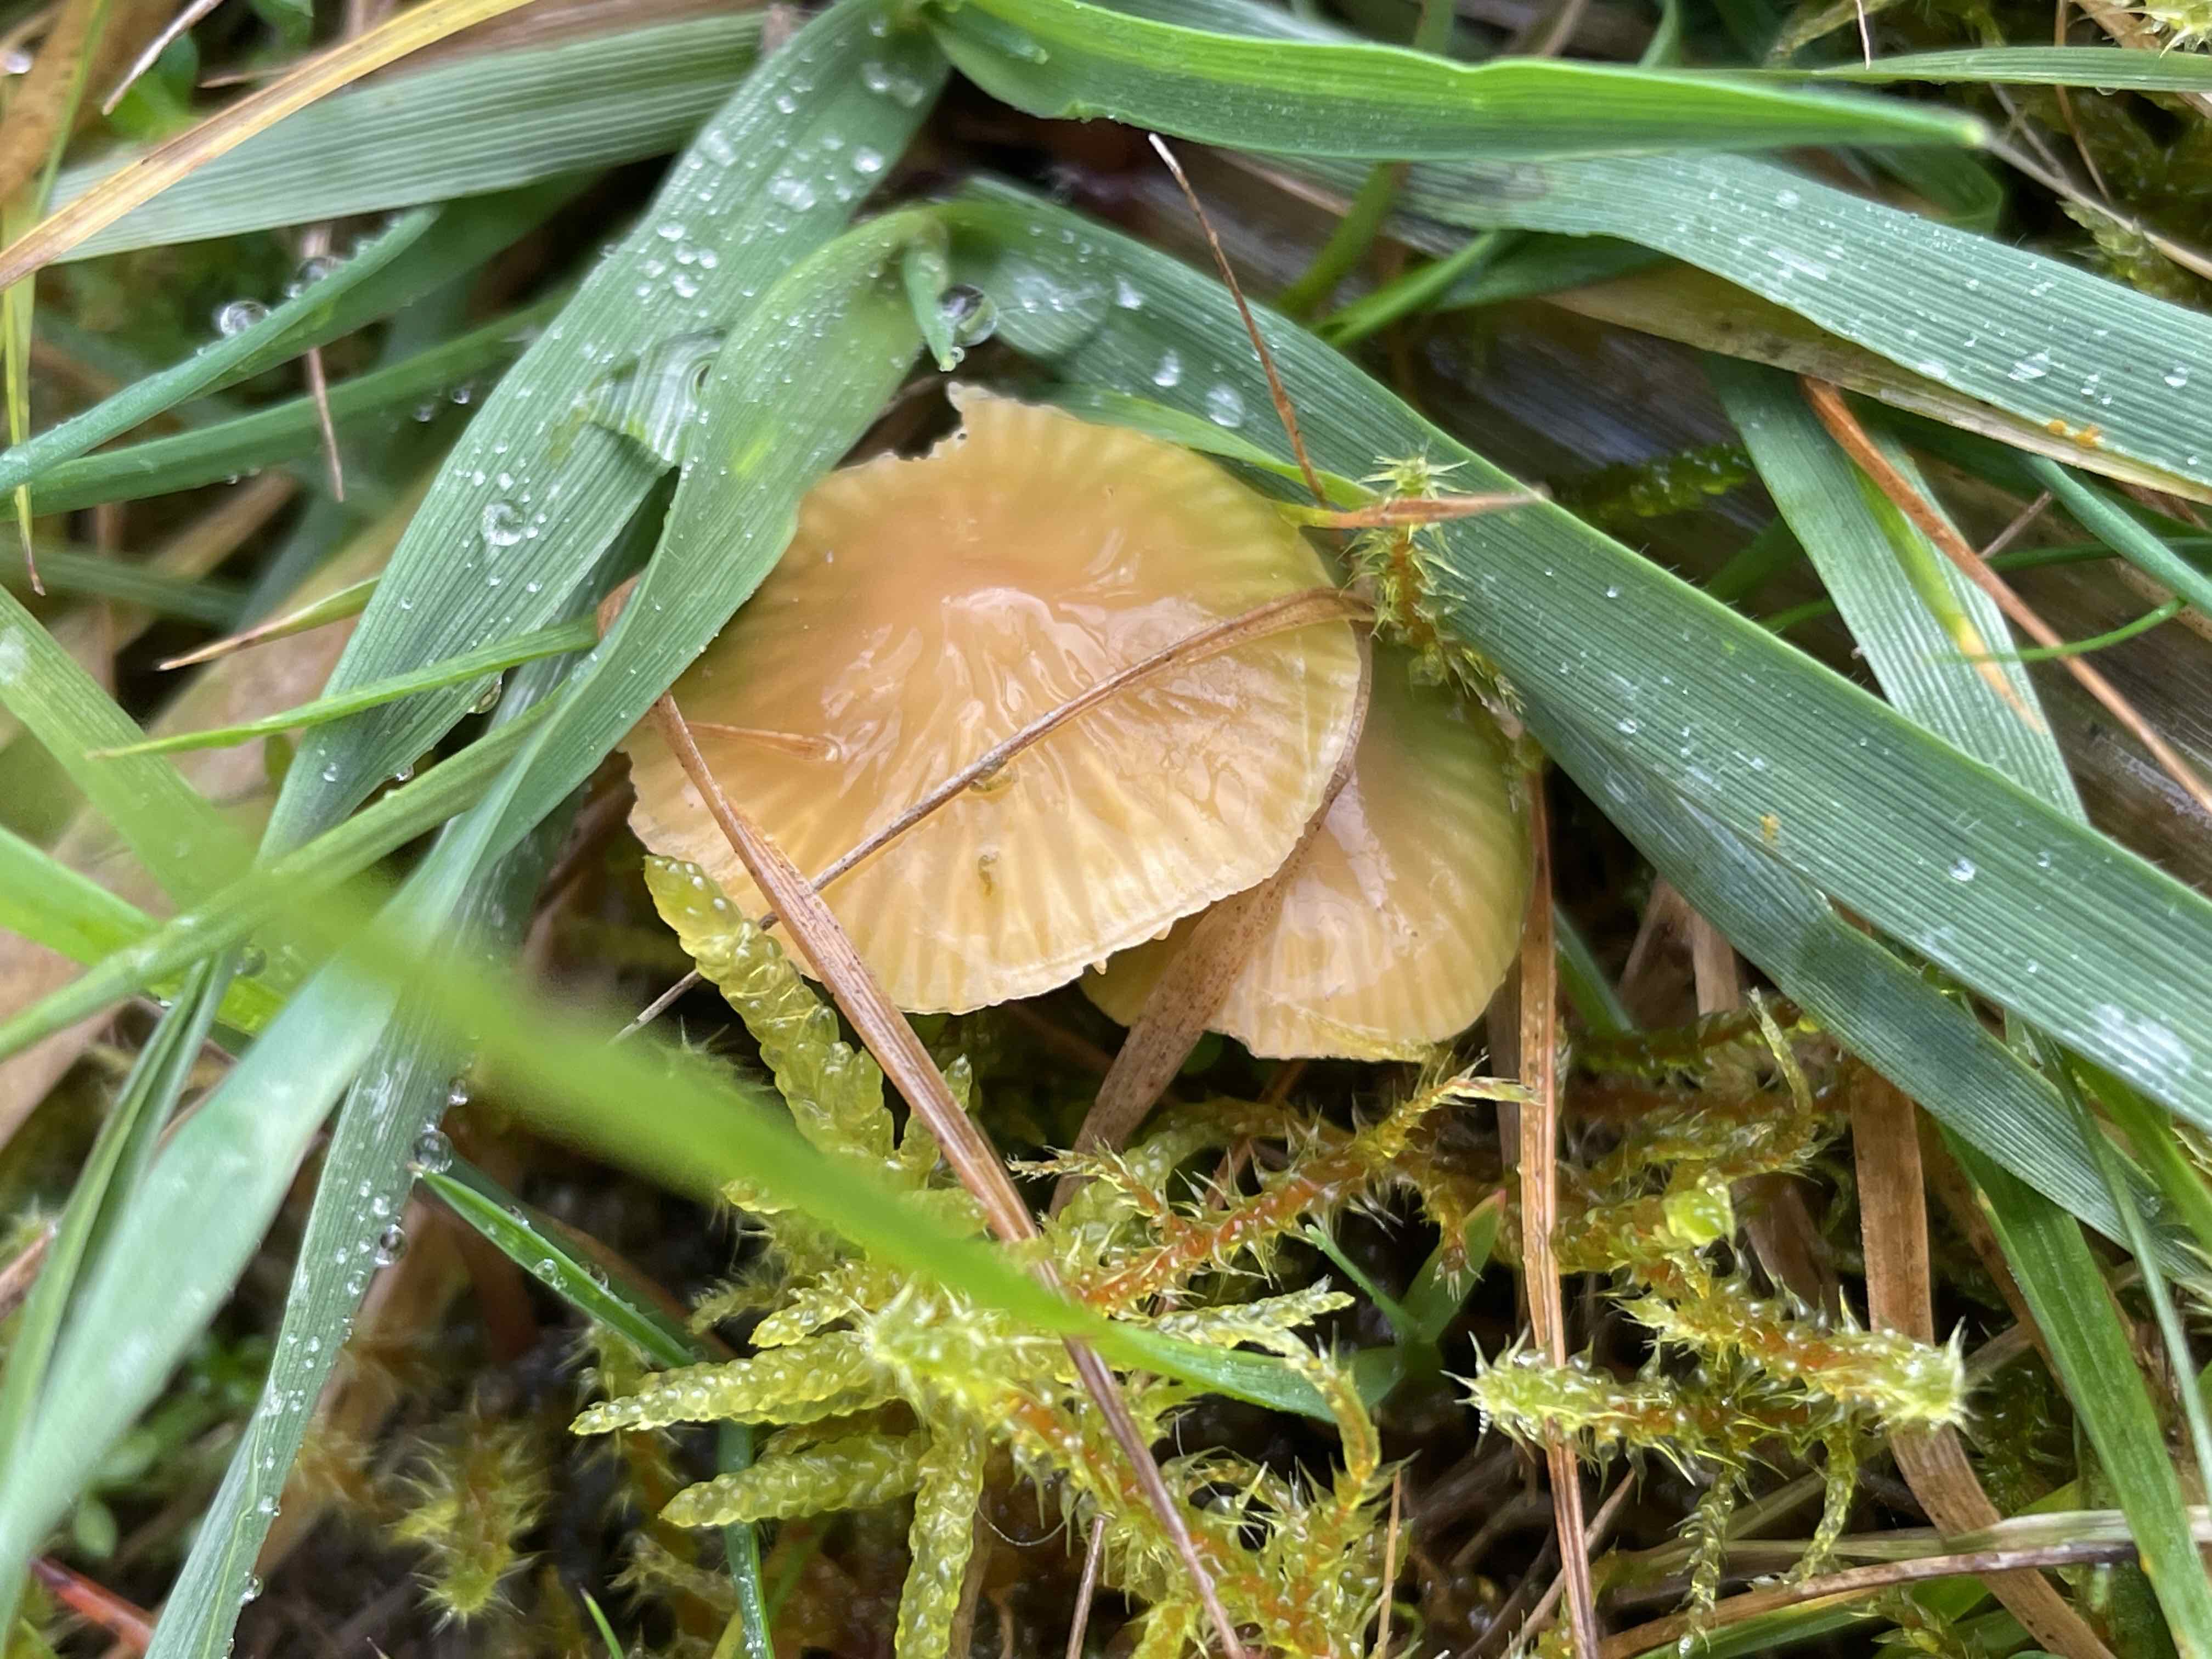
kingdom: Fungi
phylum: Basidiomycota
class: Agaricomycetes
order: Agaricales
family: Hygrophoraceae
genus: Gliophorus
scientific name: Gliophorus psittacinus
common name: papegøje-vokshat
